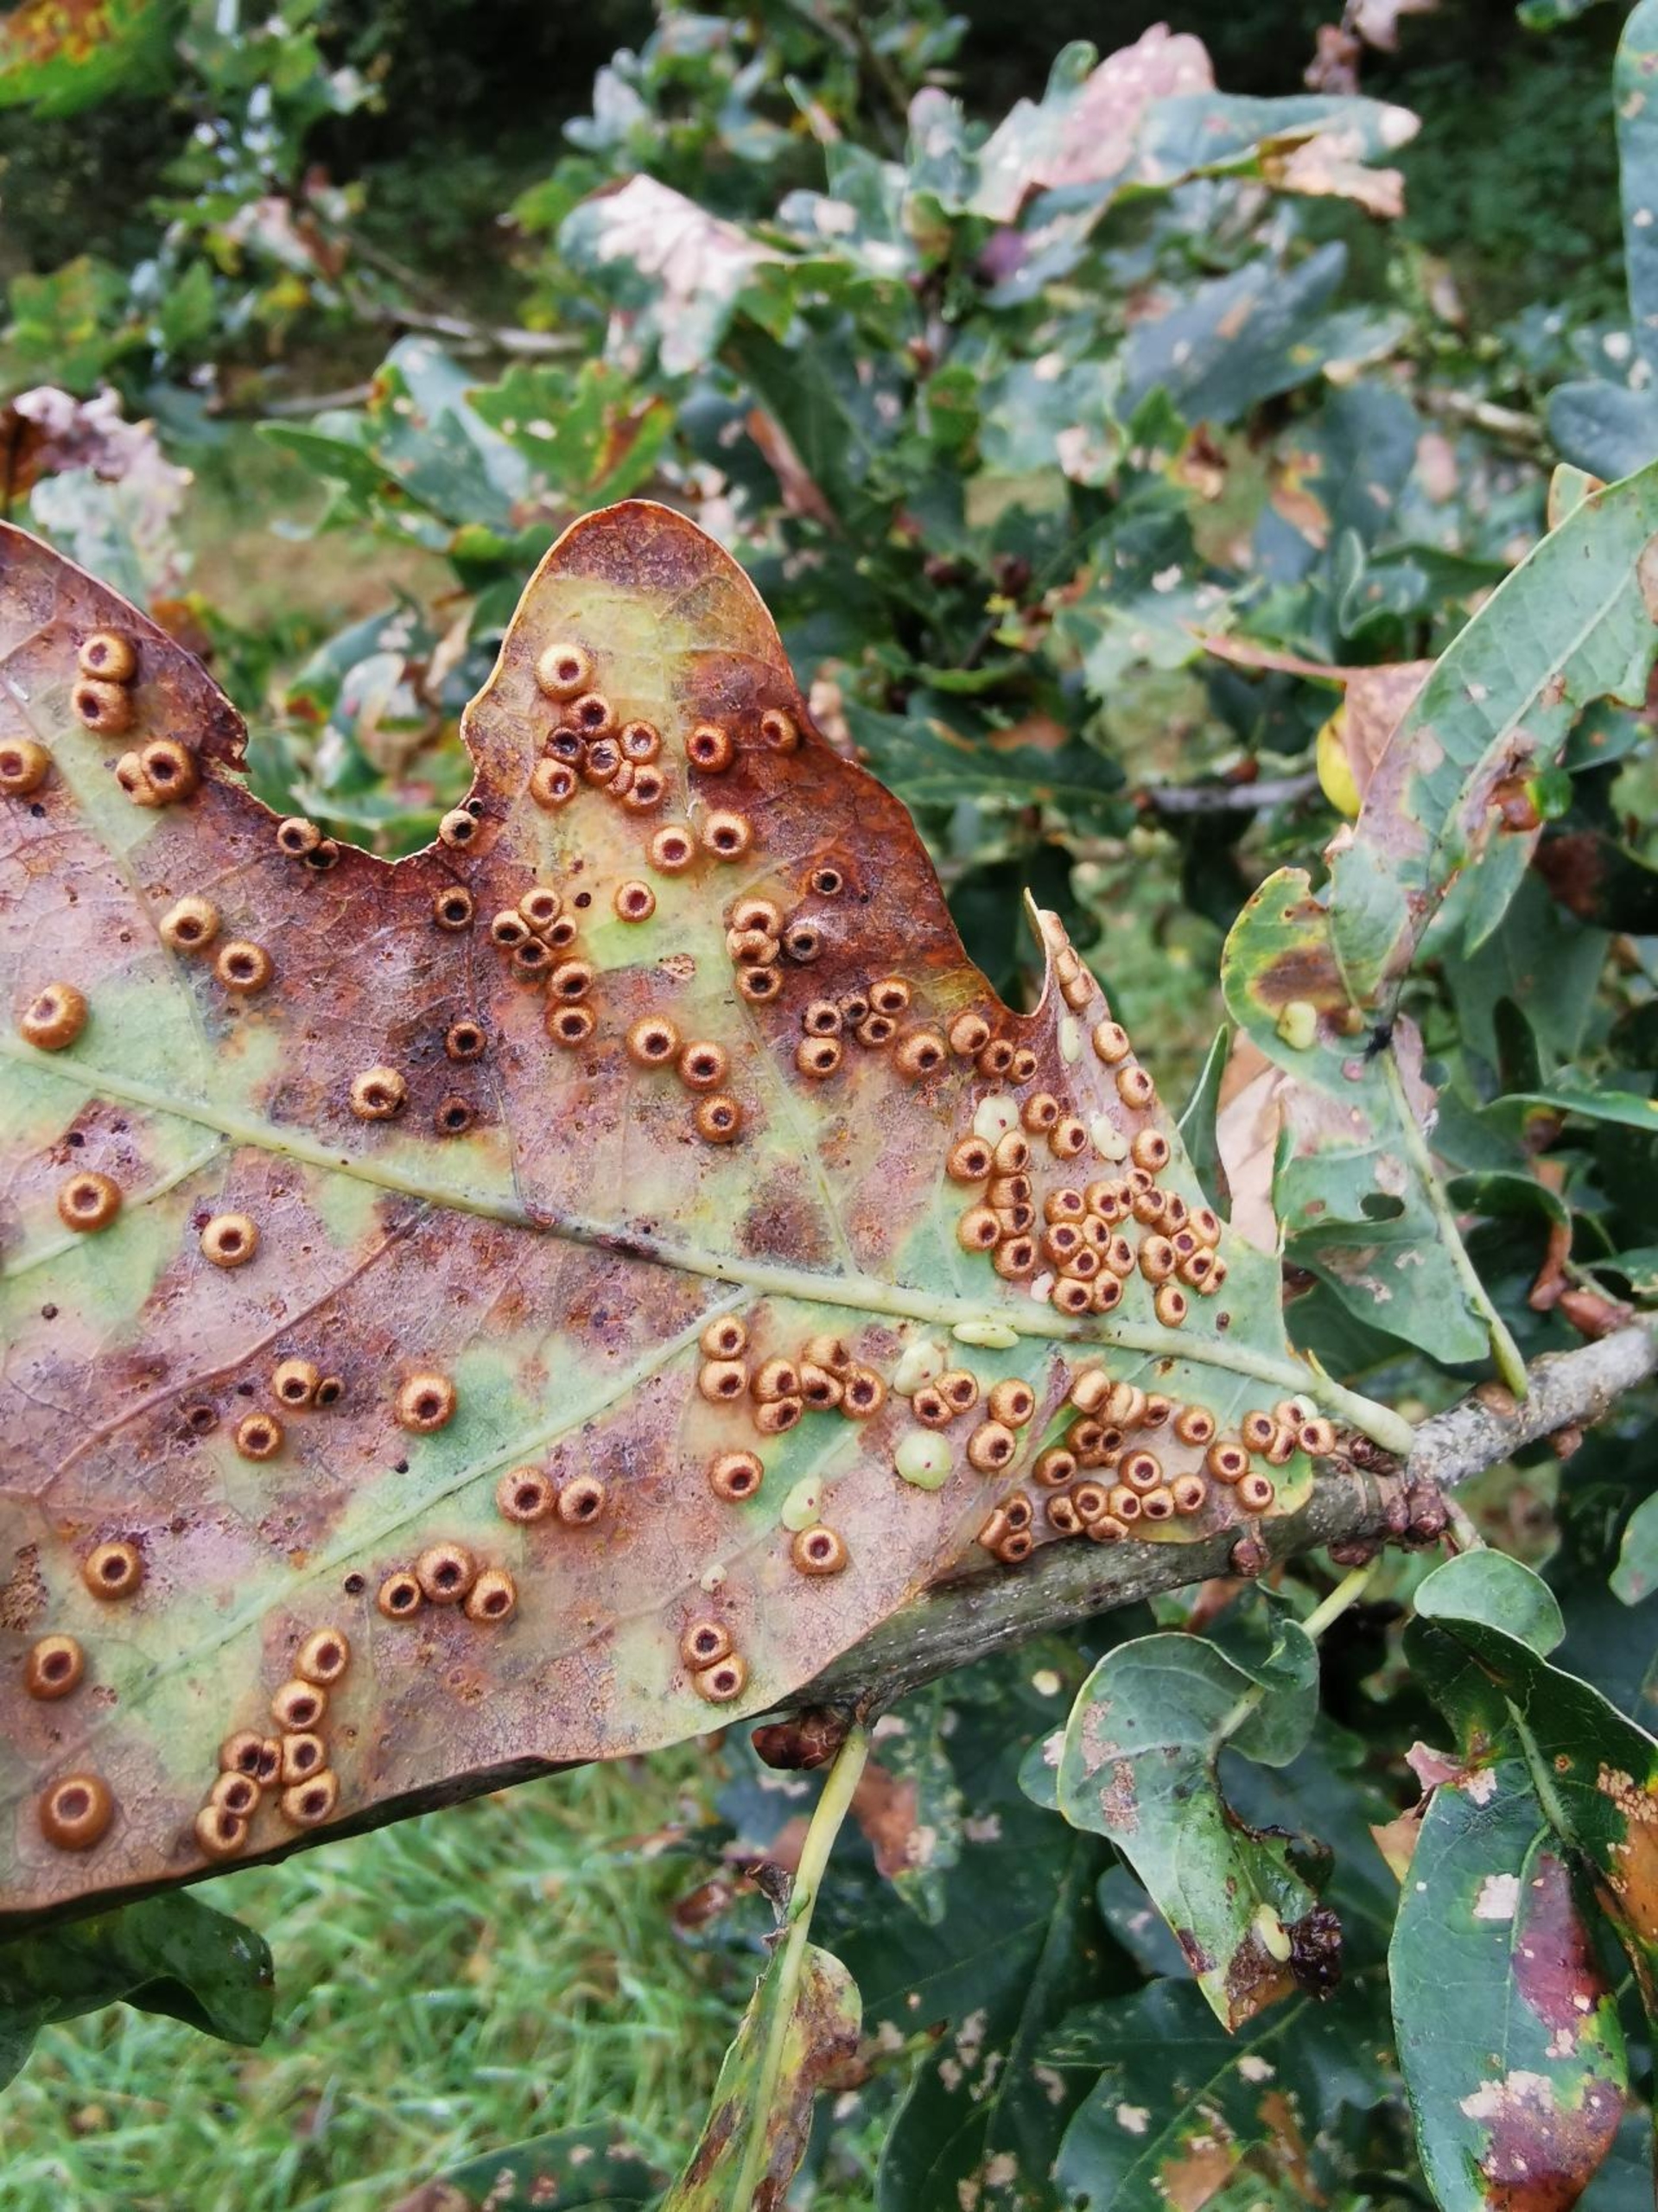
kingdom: Animalia
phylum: Arthropoda
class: Insecta
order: Hymenoptera
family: Cynipidae
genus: Neuroterus
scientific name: Neuroterus numismalis
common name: Knapgalhveps
